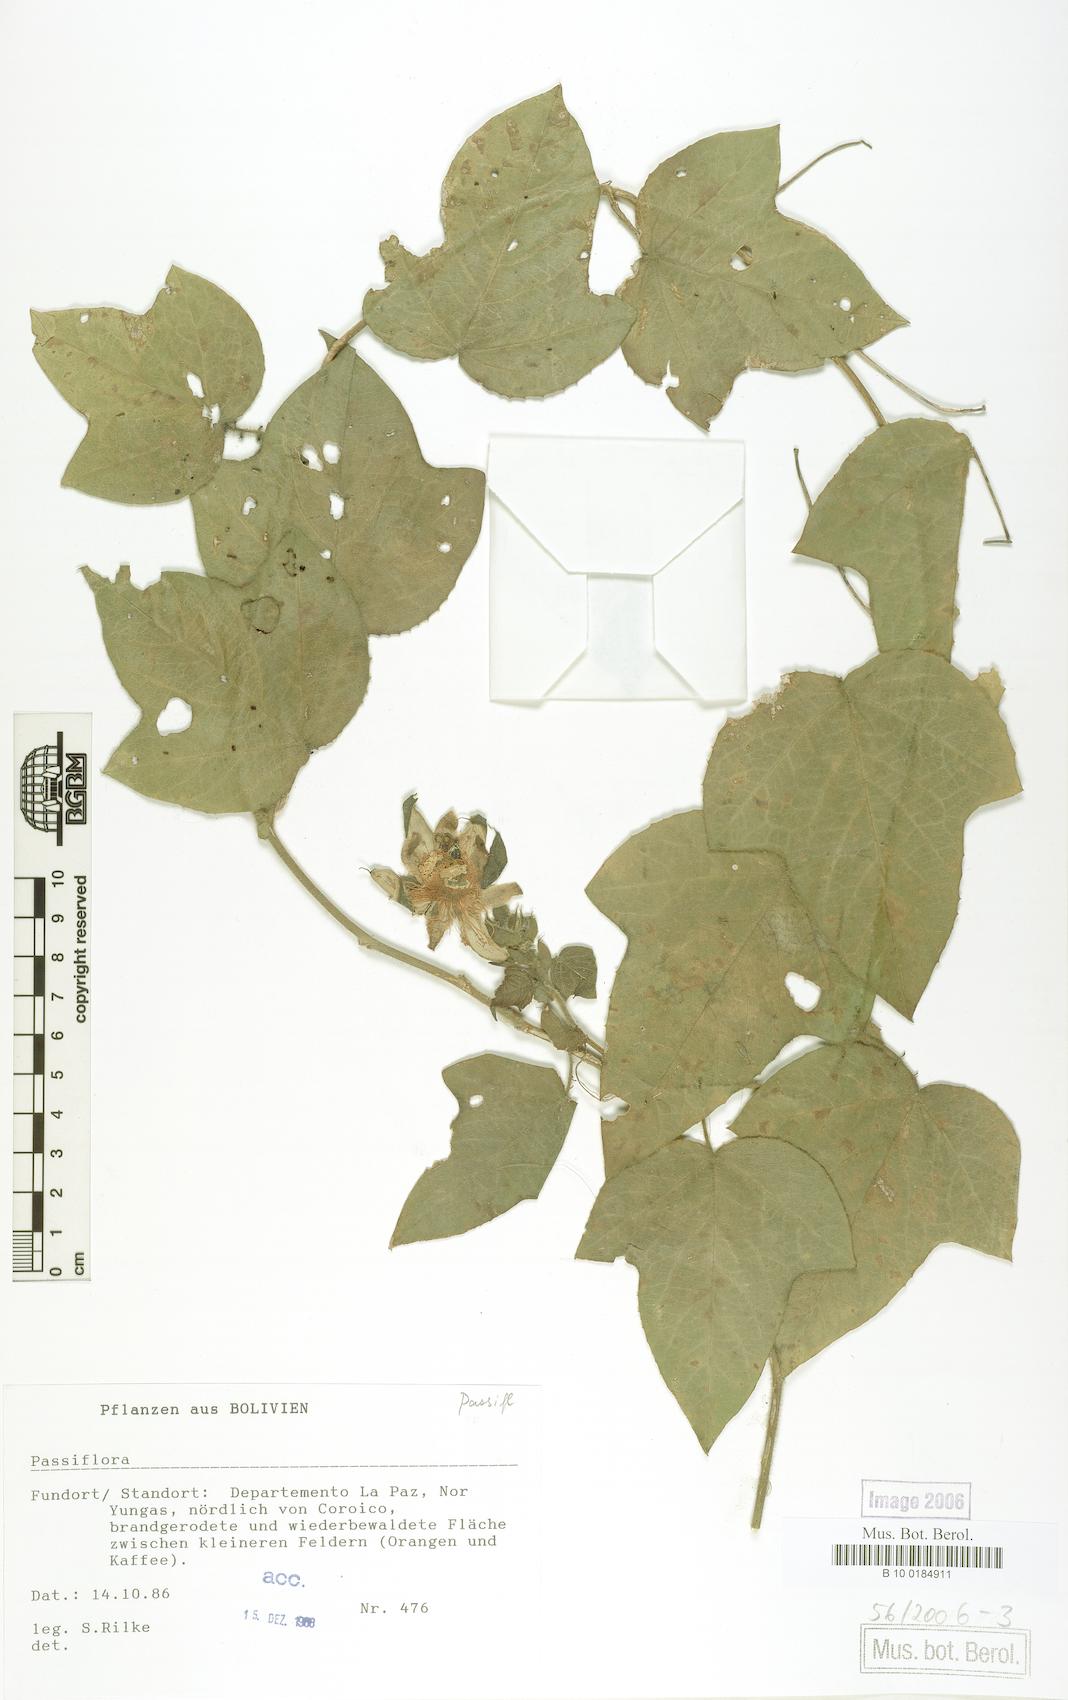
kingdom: Plantae
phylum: Tracheophyta
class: Magnoliopsida
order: Malpighiales
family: Passifloraceae
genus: Passiflora
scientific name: Passiflora
